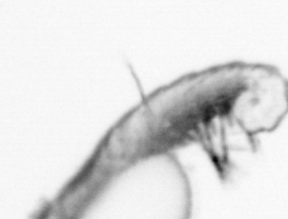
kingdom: Animalia
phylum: Annelida
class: Polychaeta
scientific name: Polychaeta
